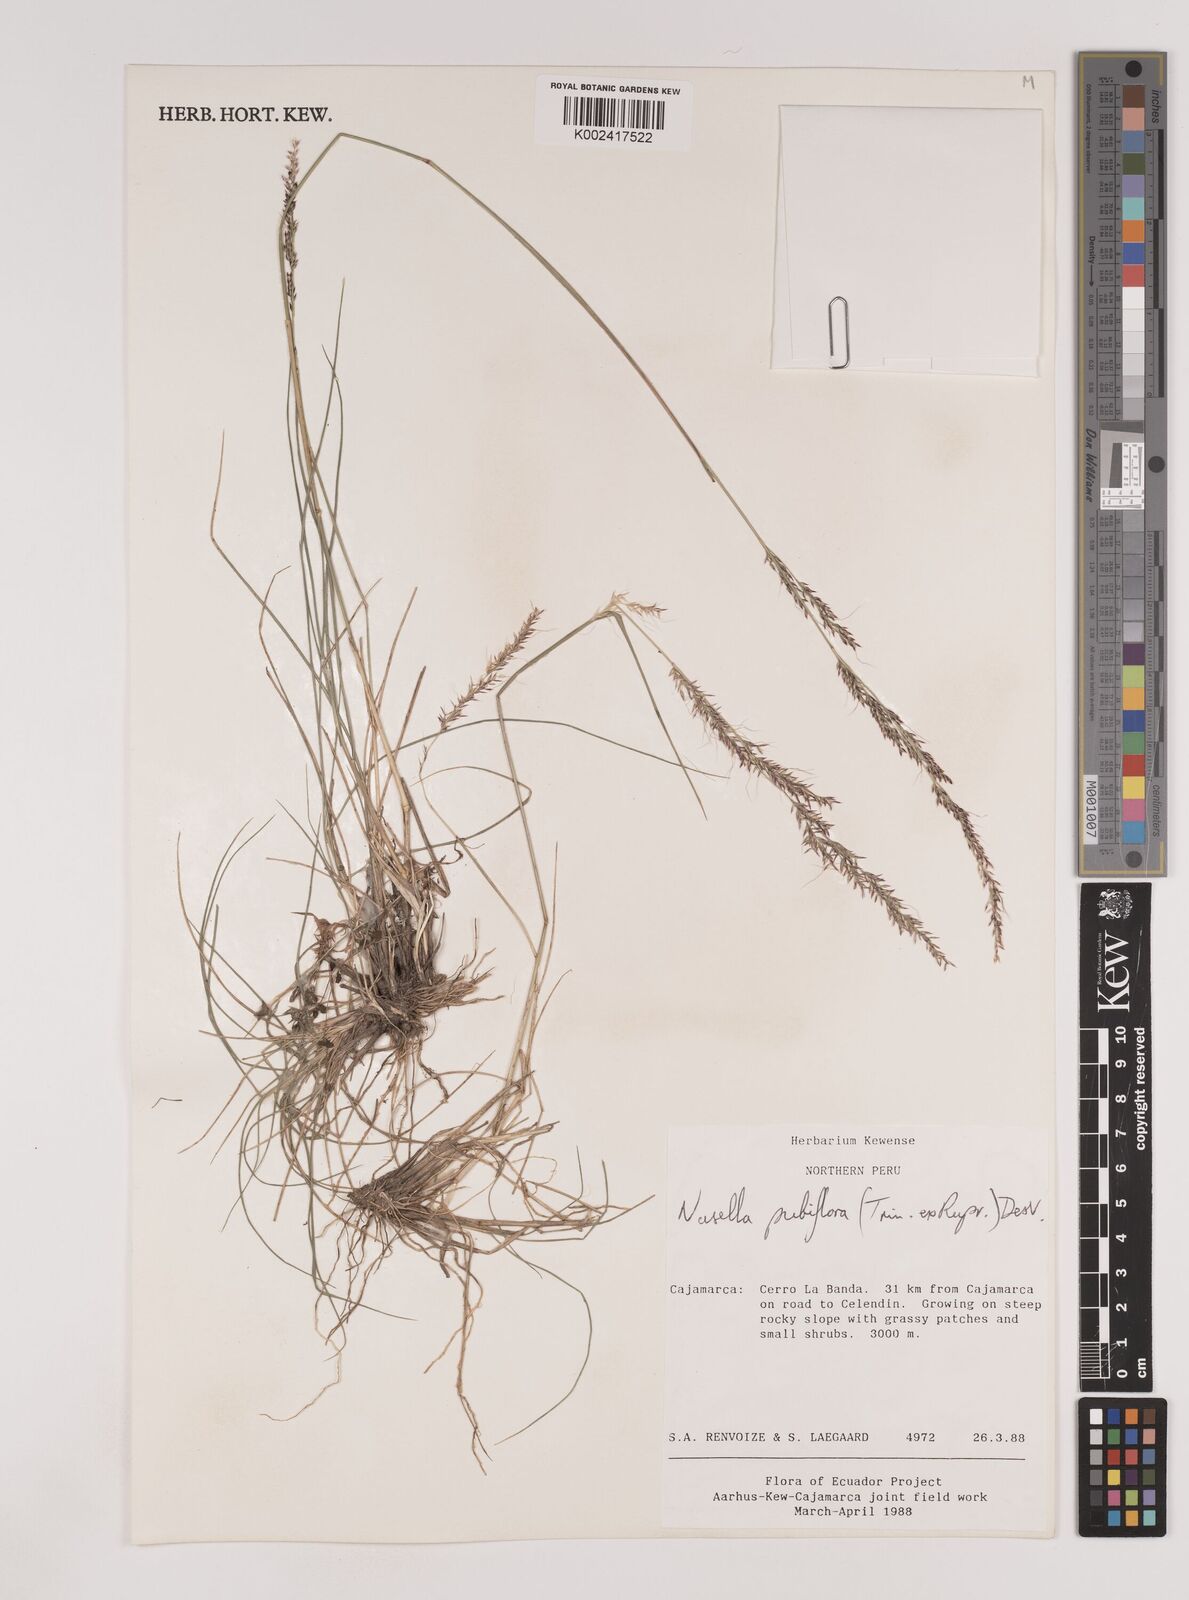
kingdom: Plantae
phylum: Tracheophyta
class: Liliopsida
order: Poales
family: Poaceae
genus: Nassella
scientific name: Nassella pubiflora
